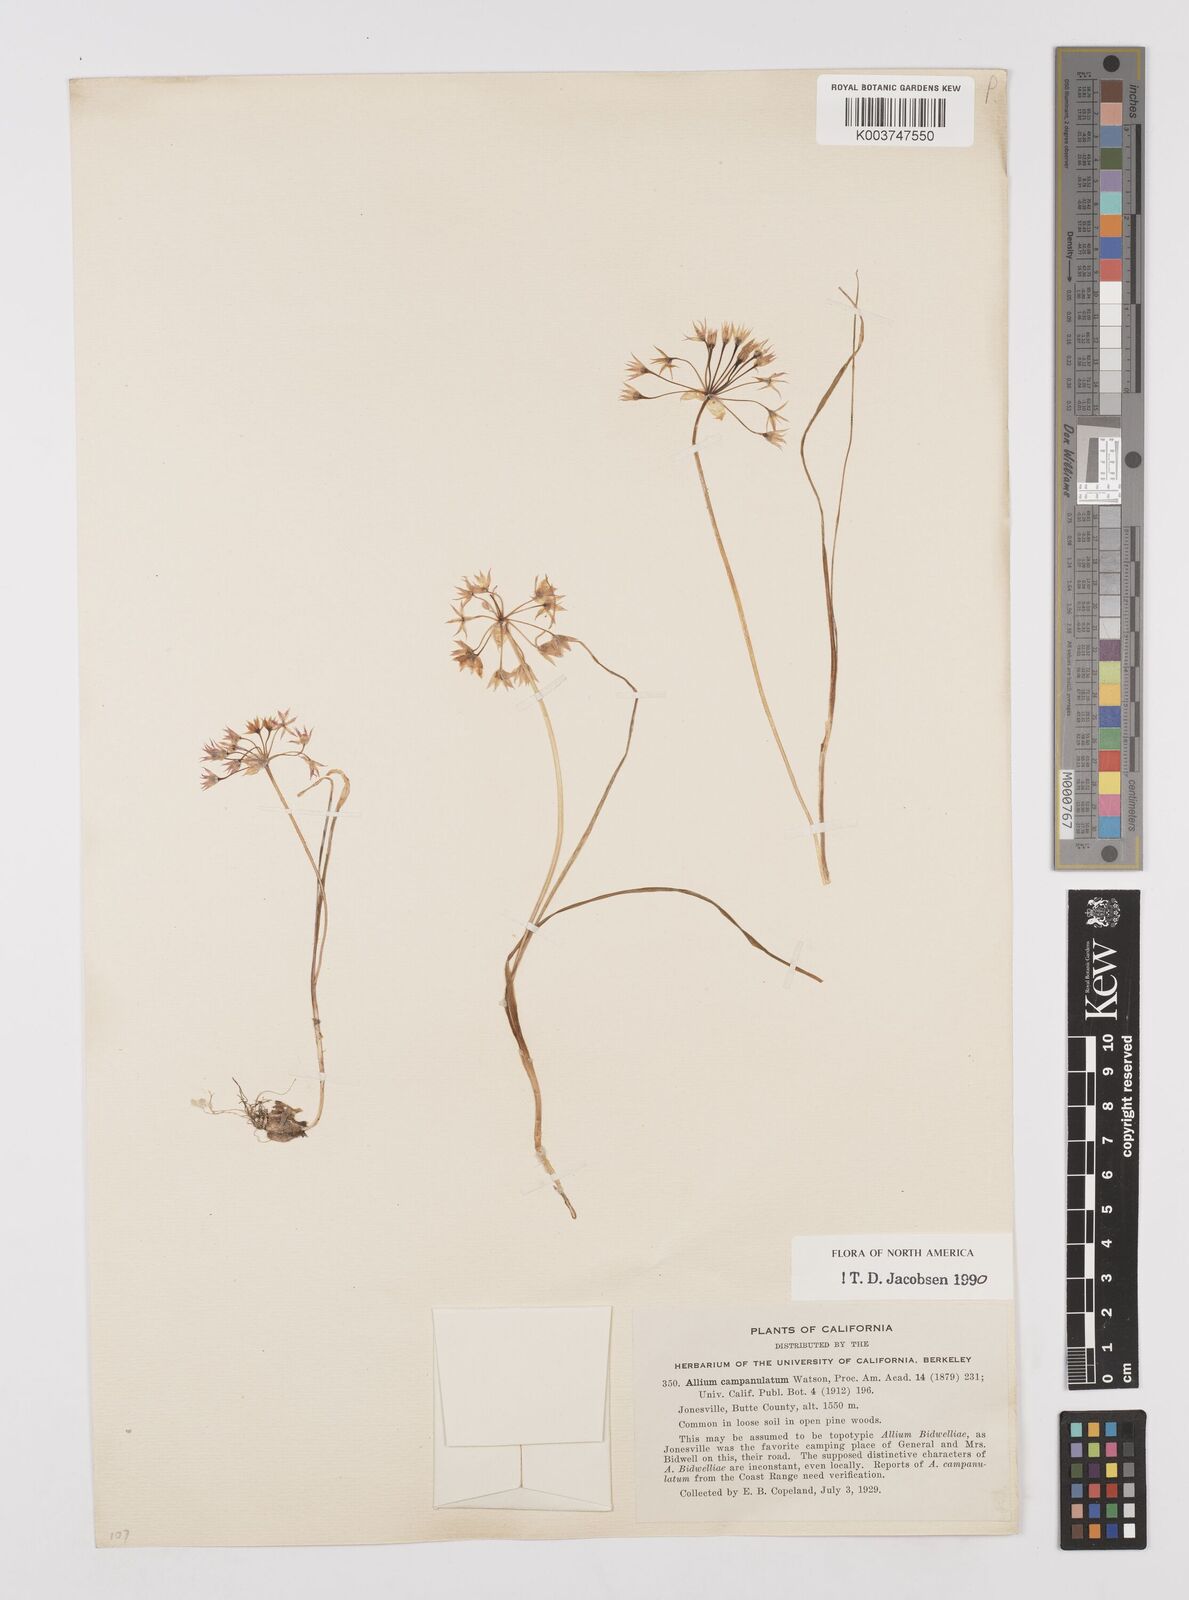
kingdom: Plantae
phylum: Tracheophyta
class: Liliopsida
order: Asparagales
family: Amaryllidaceae
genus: Allium
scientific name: Allium campanulatum
